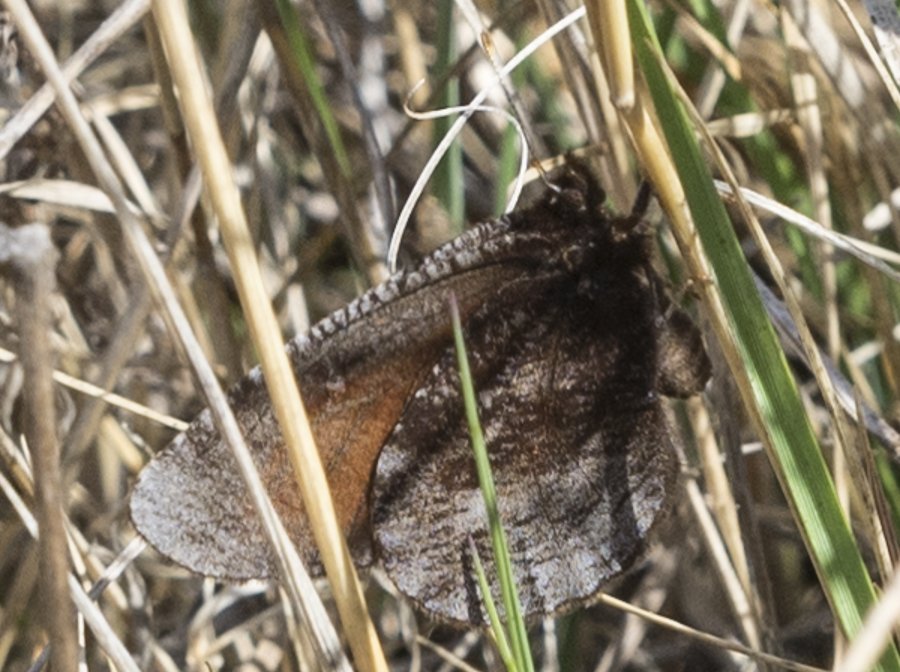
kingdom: Animalia
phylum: Arthropoda
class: Insecta
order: Lepidoptera
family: Nymphalidae
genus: Erebia
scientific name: Erebia discoidalis
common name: Red-disked Alpine
